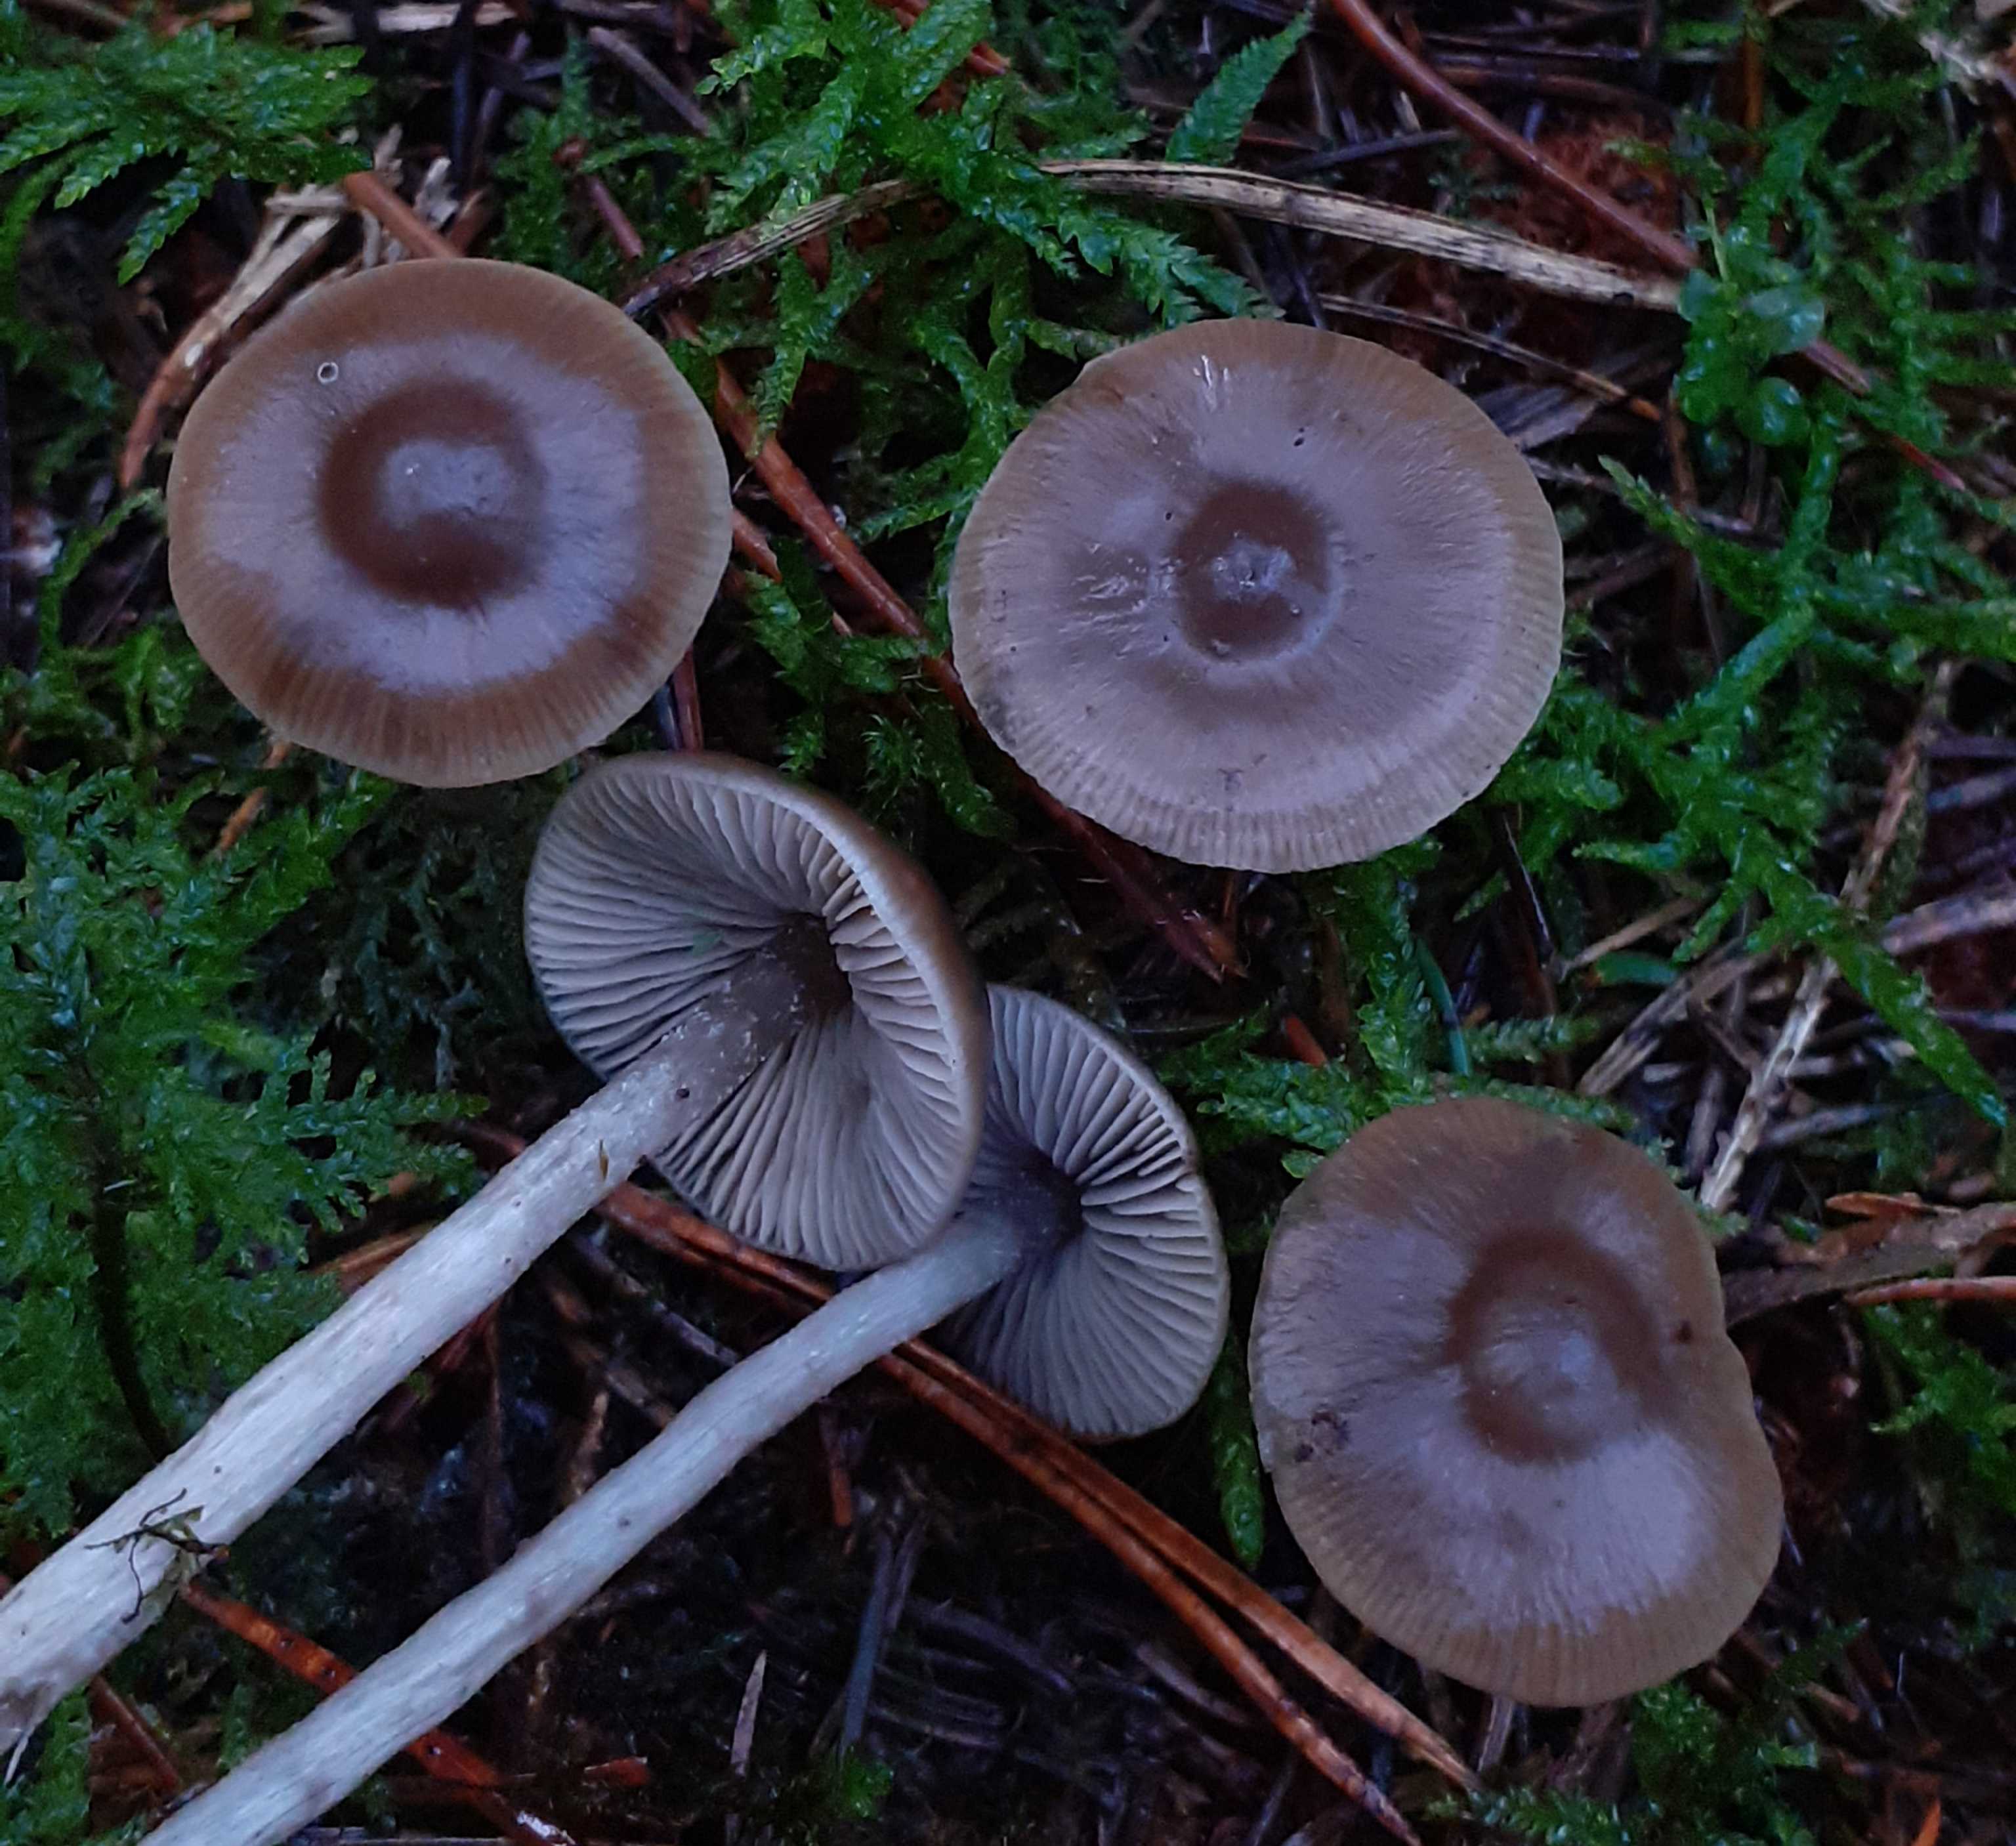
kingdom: Fungi
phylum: Basidiomycota
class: Agaricomycetes
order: Agaricales
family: Lyophyllaceae
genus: Myochromella
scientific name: Myochromella boudieri
